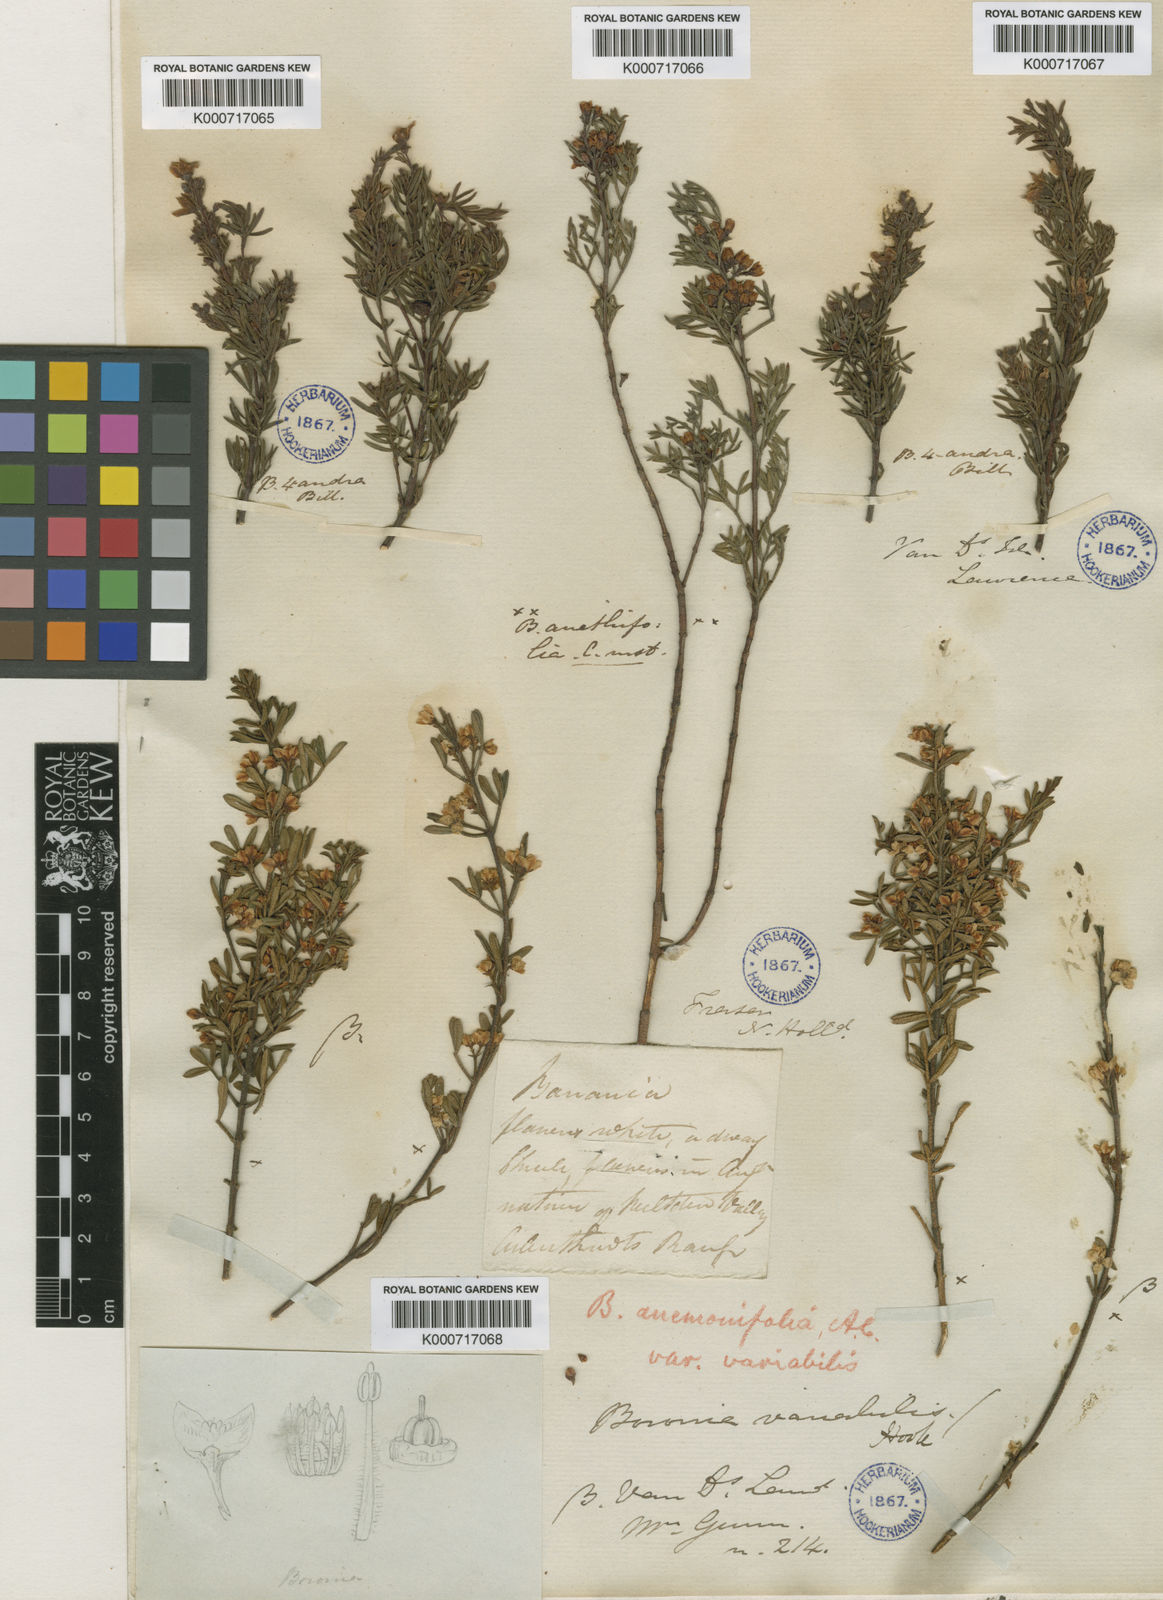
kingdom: Plantae
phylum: Tracheophyta
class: Magnoliopsida
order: Sapindales
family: Rutaceae
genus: Cyanothamnus
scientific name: Cyanothamnus anemonifolius
